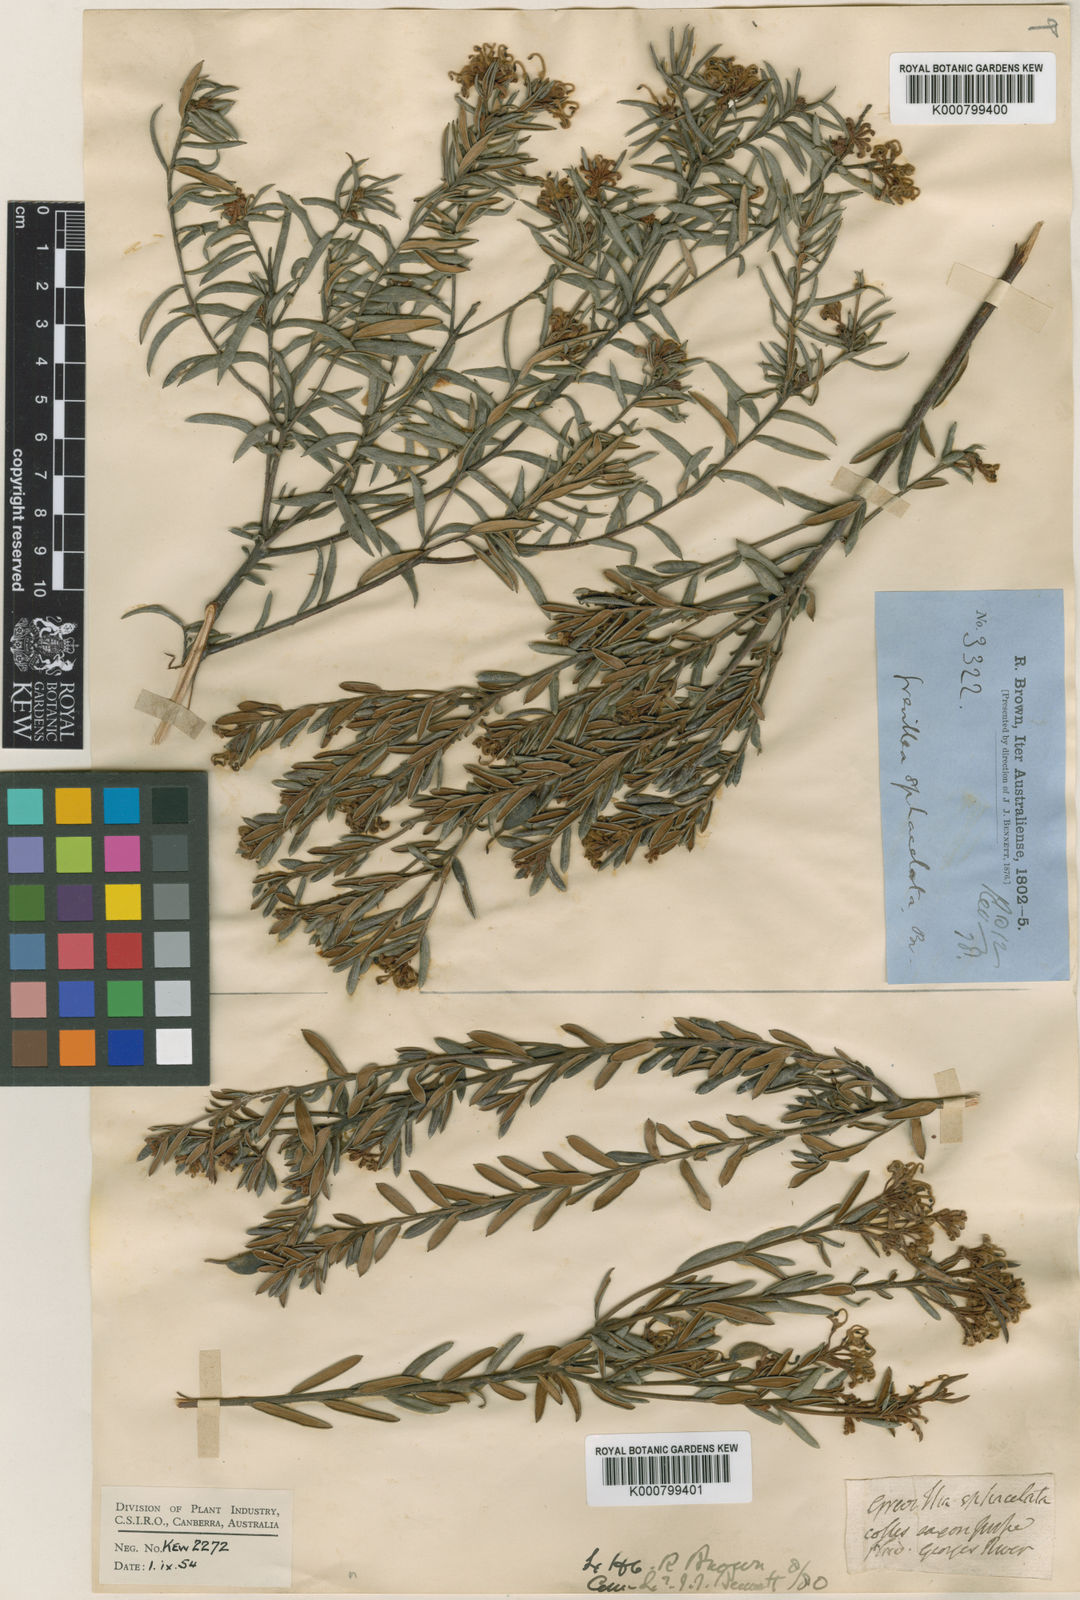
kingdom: Plantae
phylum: Tracheophyta
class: Magnoliopsida
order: Proteales
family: Proteaceae
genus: Grevillea
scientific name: Grevillea sphacelata
